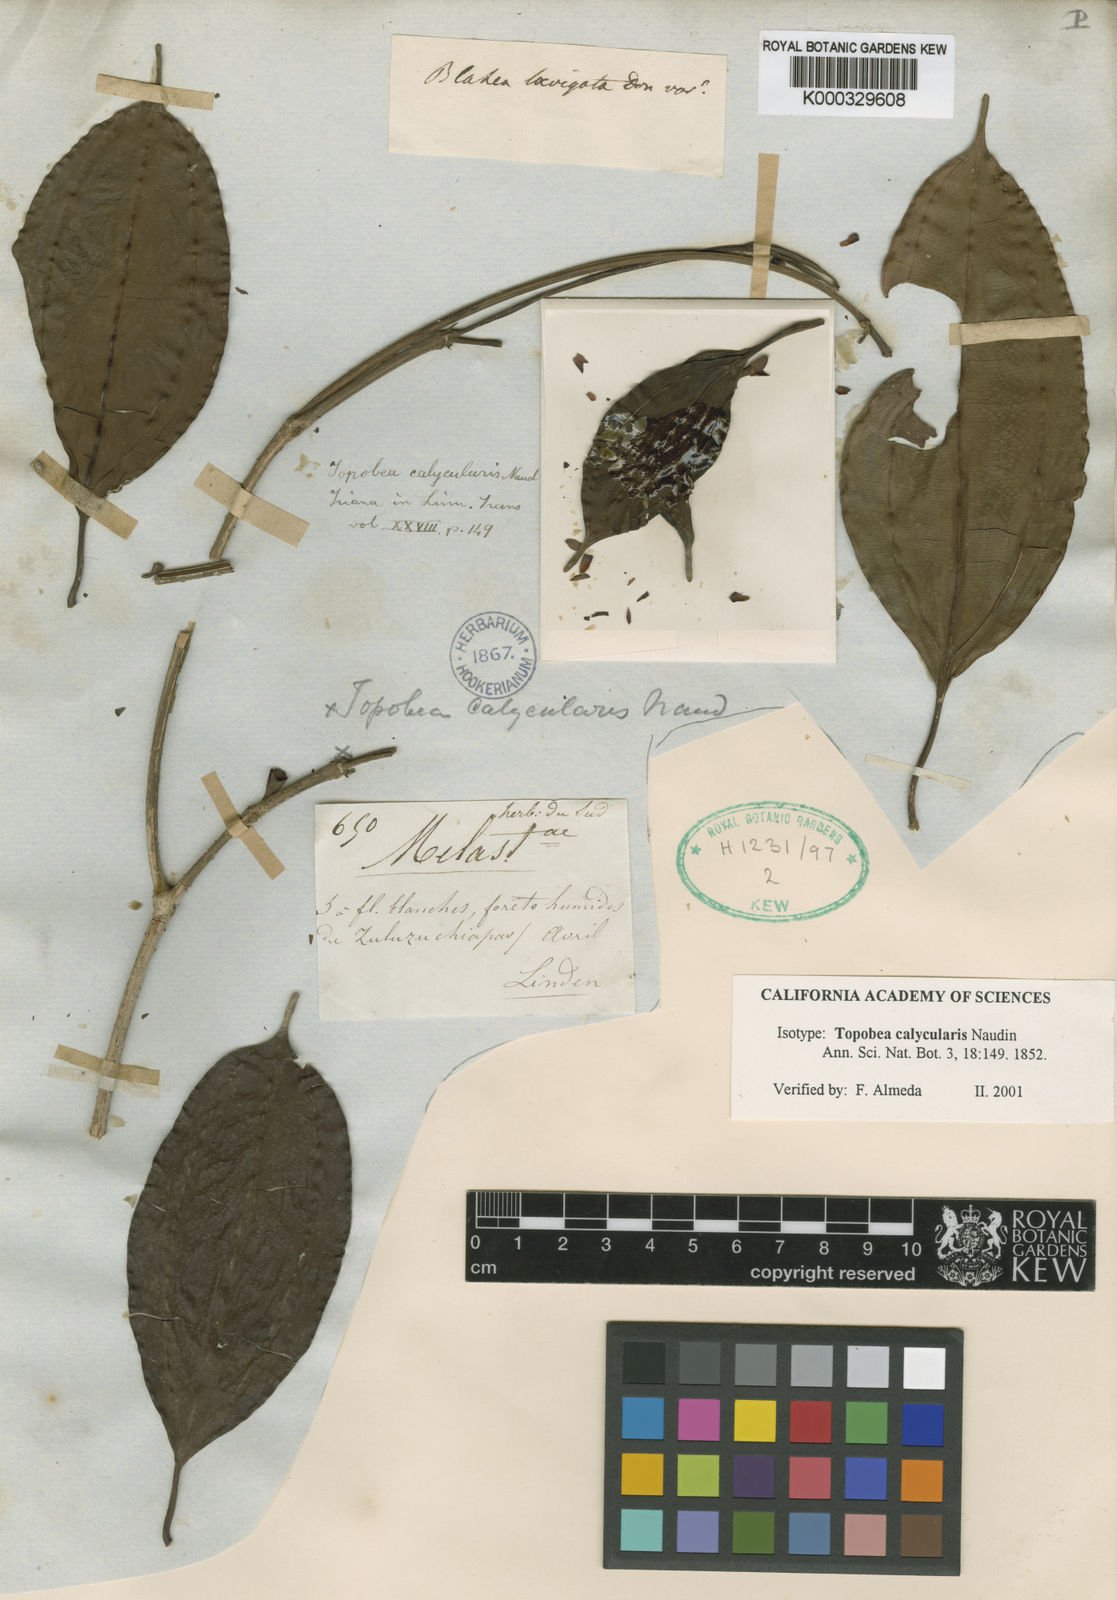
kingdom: Plantae
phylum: Tracheophyta
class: Magnoliopsida
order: Myrtales
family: Melastomataceae
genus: Blakea
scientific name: Blakea calycularis
